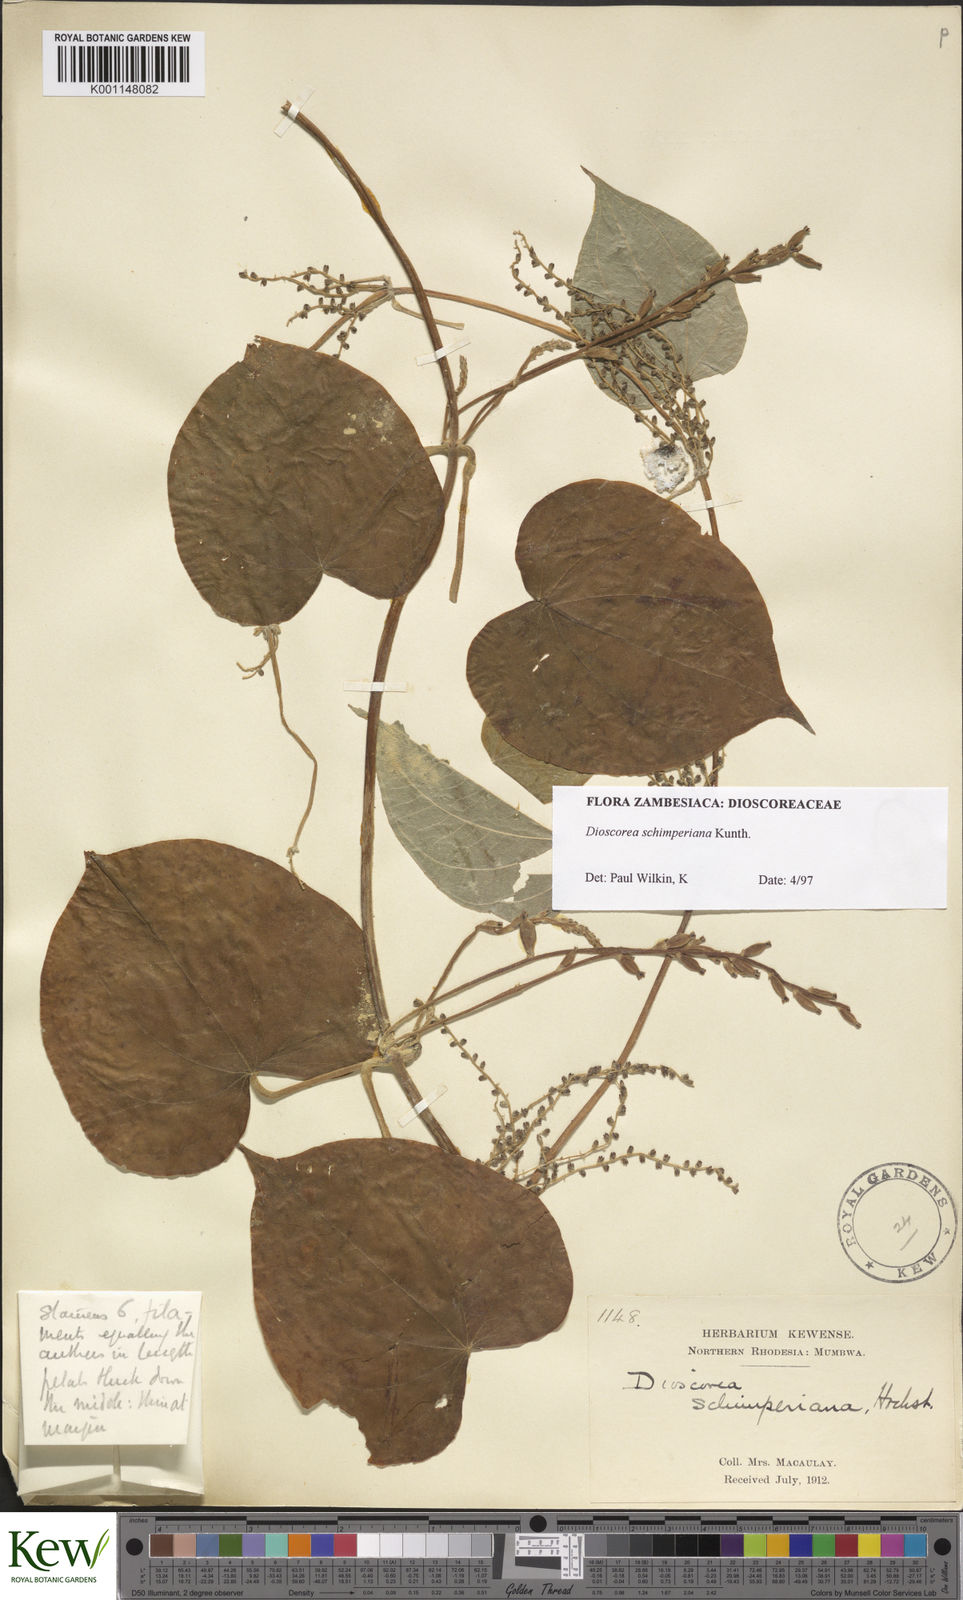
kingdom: Plantae
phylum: Tracheophyta
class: Liliopsida
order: Dioscoreales
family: Dioscoreaceae
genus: Dioscorea
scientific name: Dioscorea schimperiana
